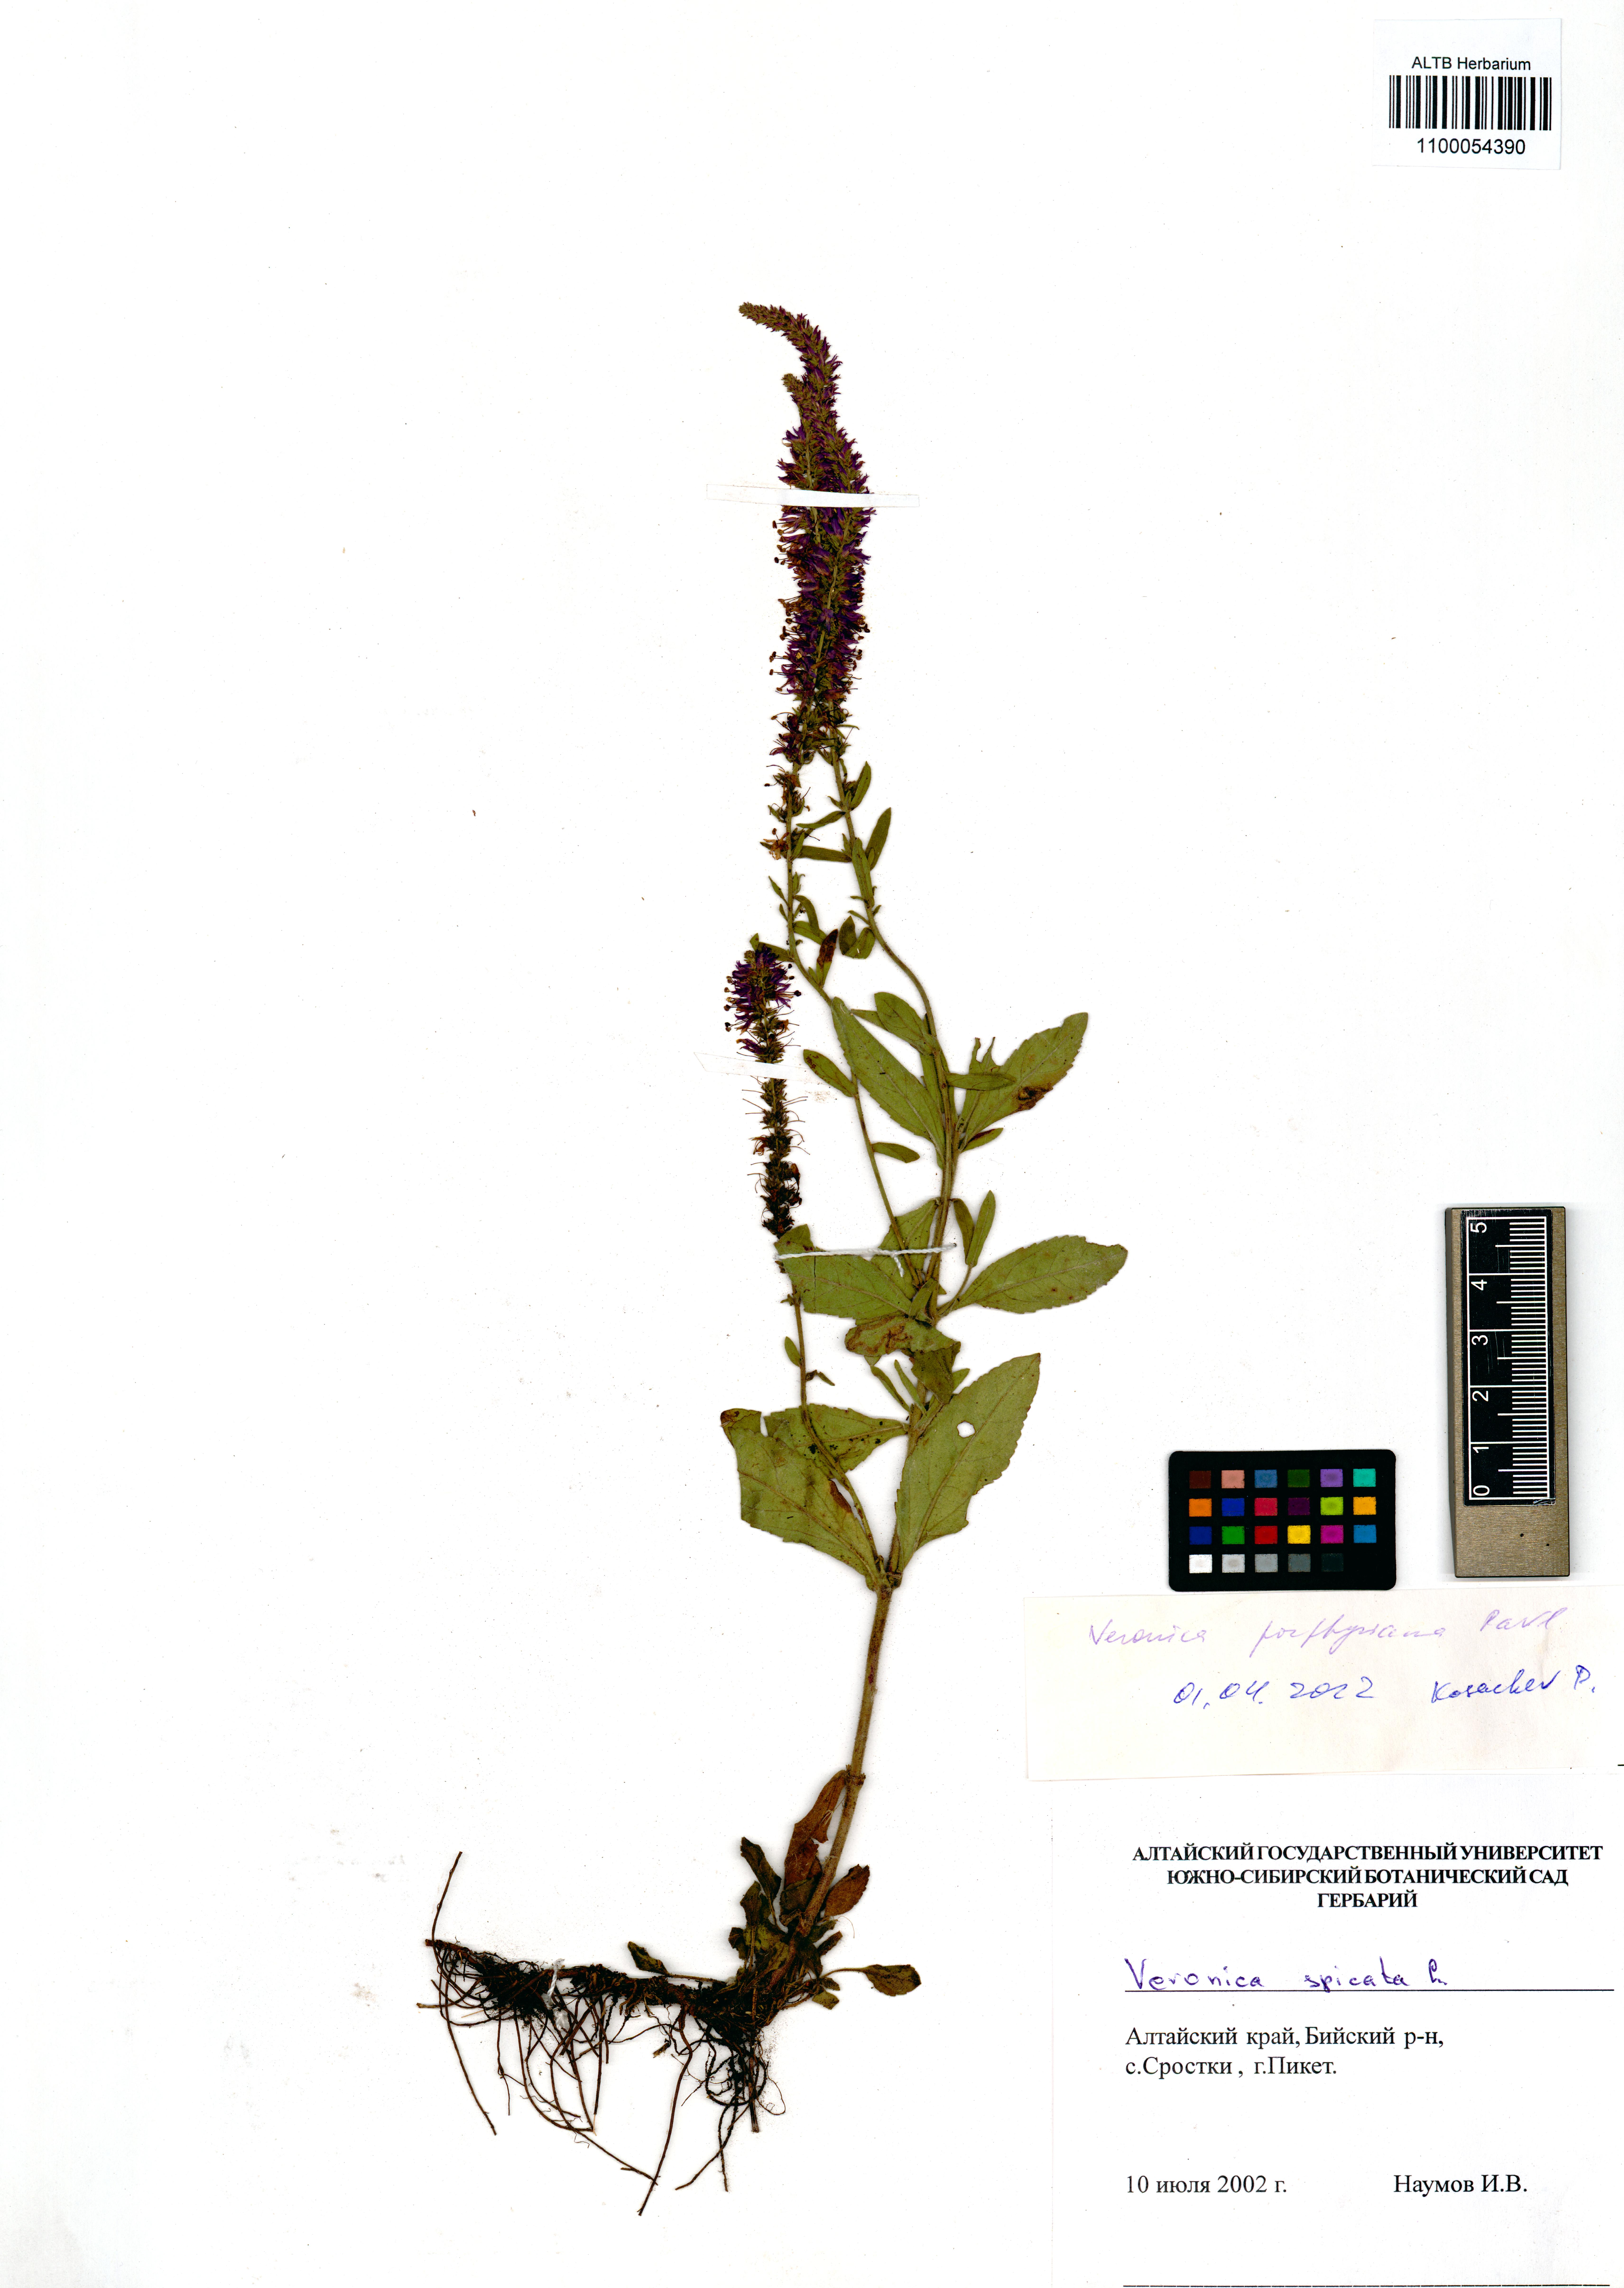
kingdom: Plantae
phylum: Tracheophyta
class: Magnoliopsida
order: Lamiales
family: Plantaginaceae
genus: Veronica
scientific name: Veronica porphyriana
